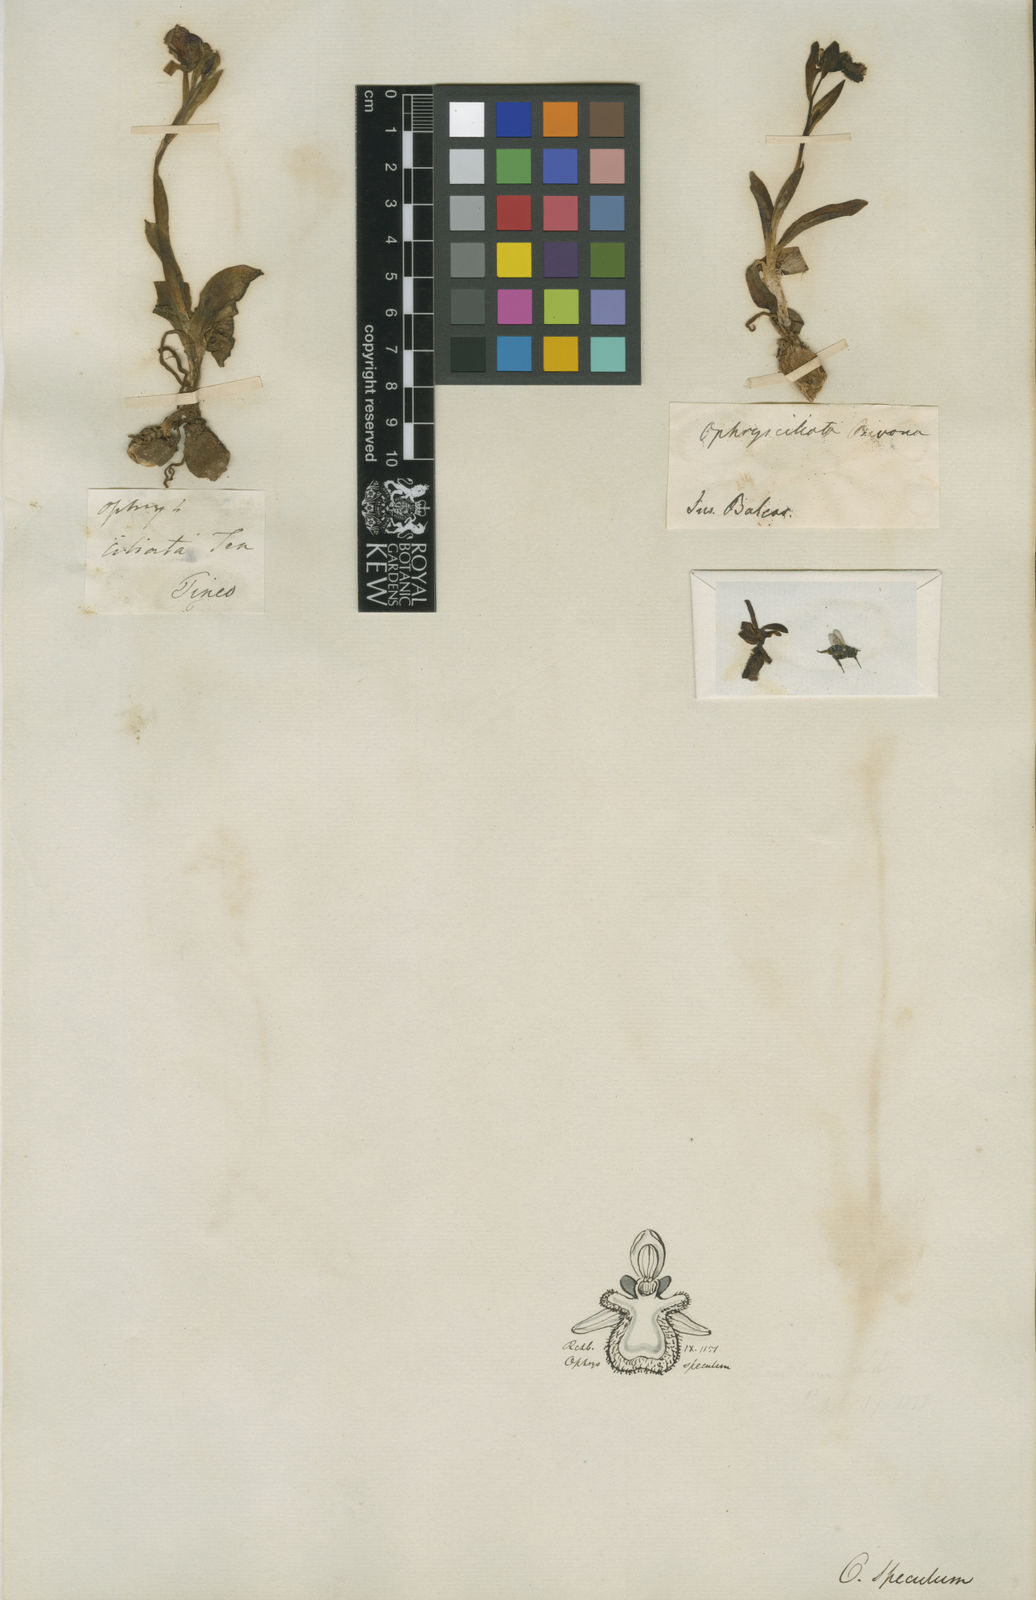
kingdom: Plantae
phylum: Tracheophyta
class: Liliopsida
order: Asparagales
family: Orchidaceae
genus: Ophrys
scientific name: Ophrys speculum
